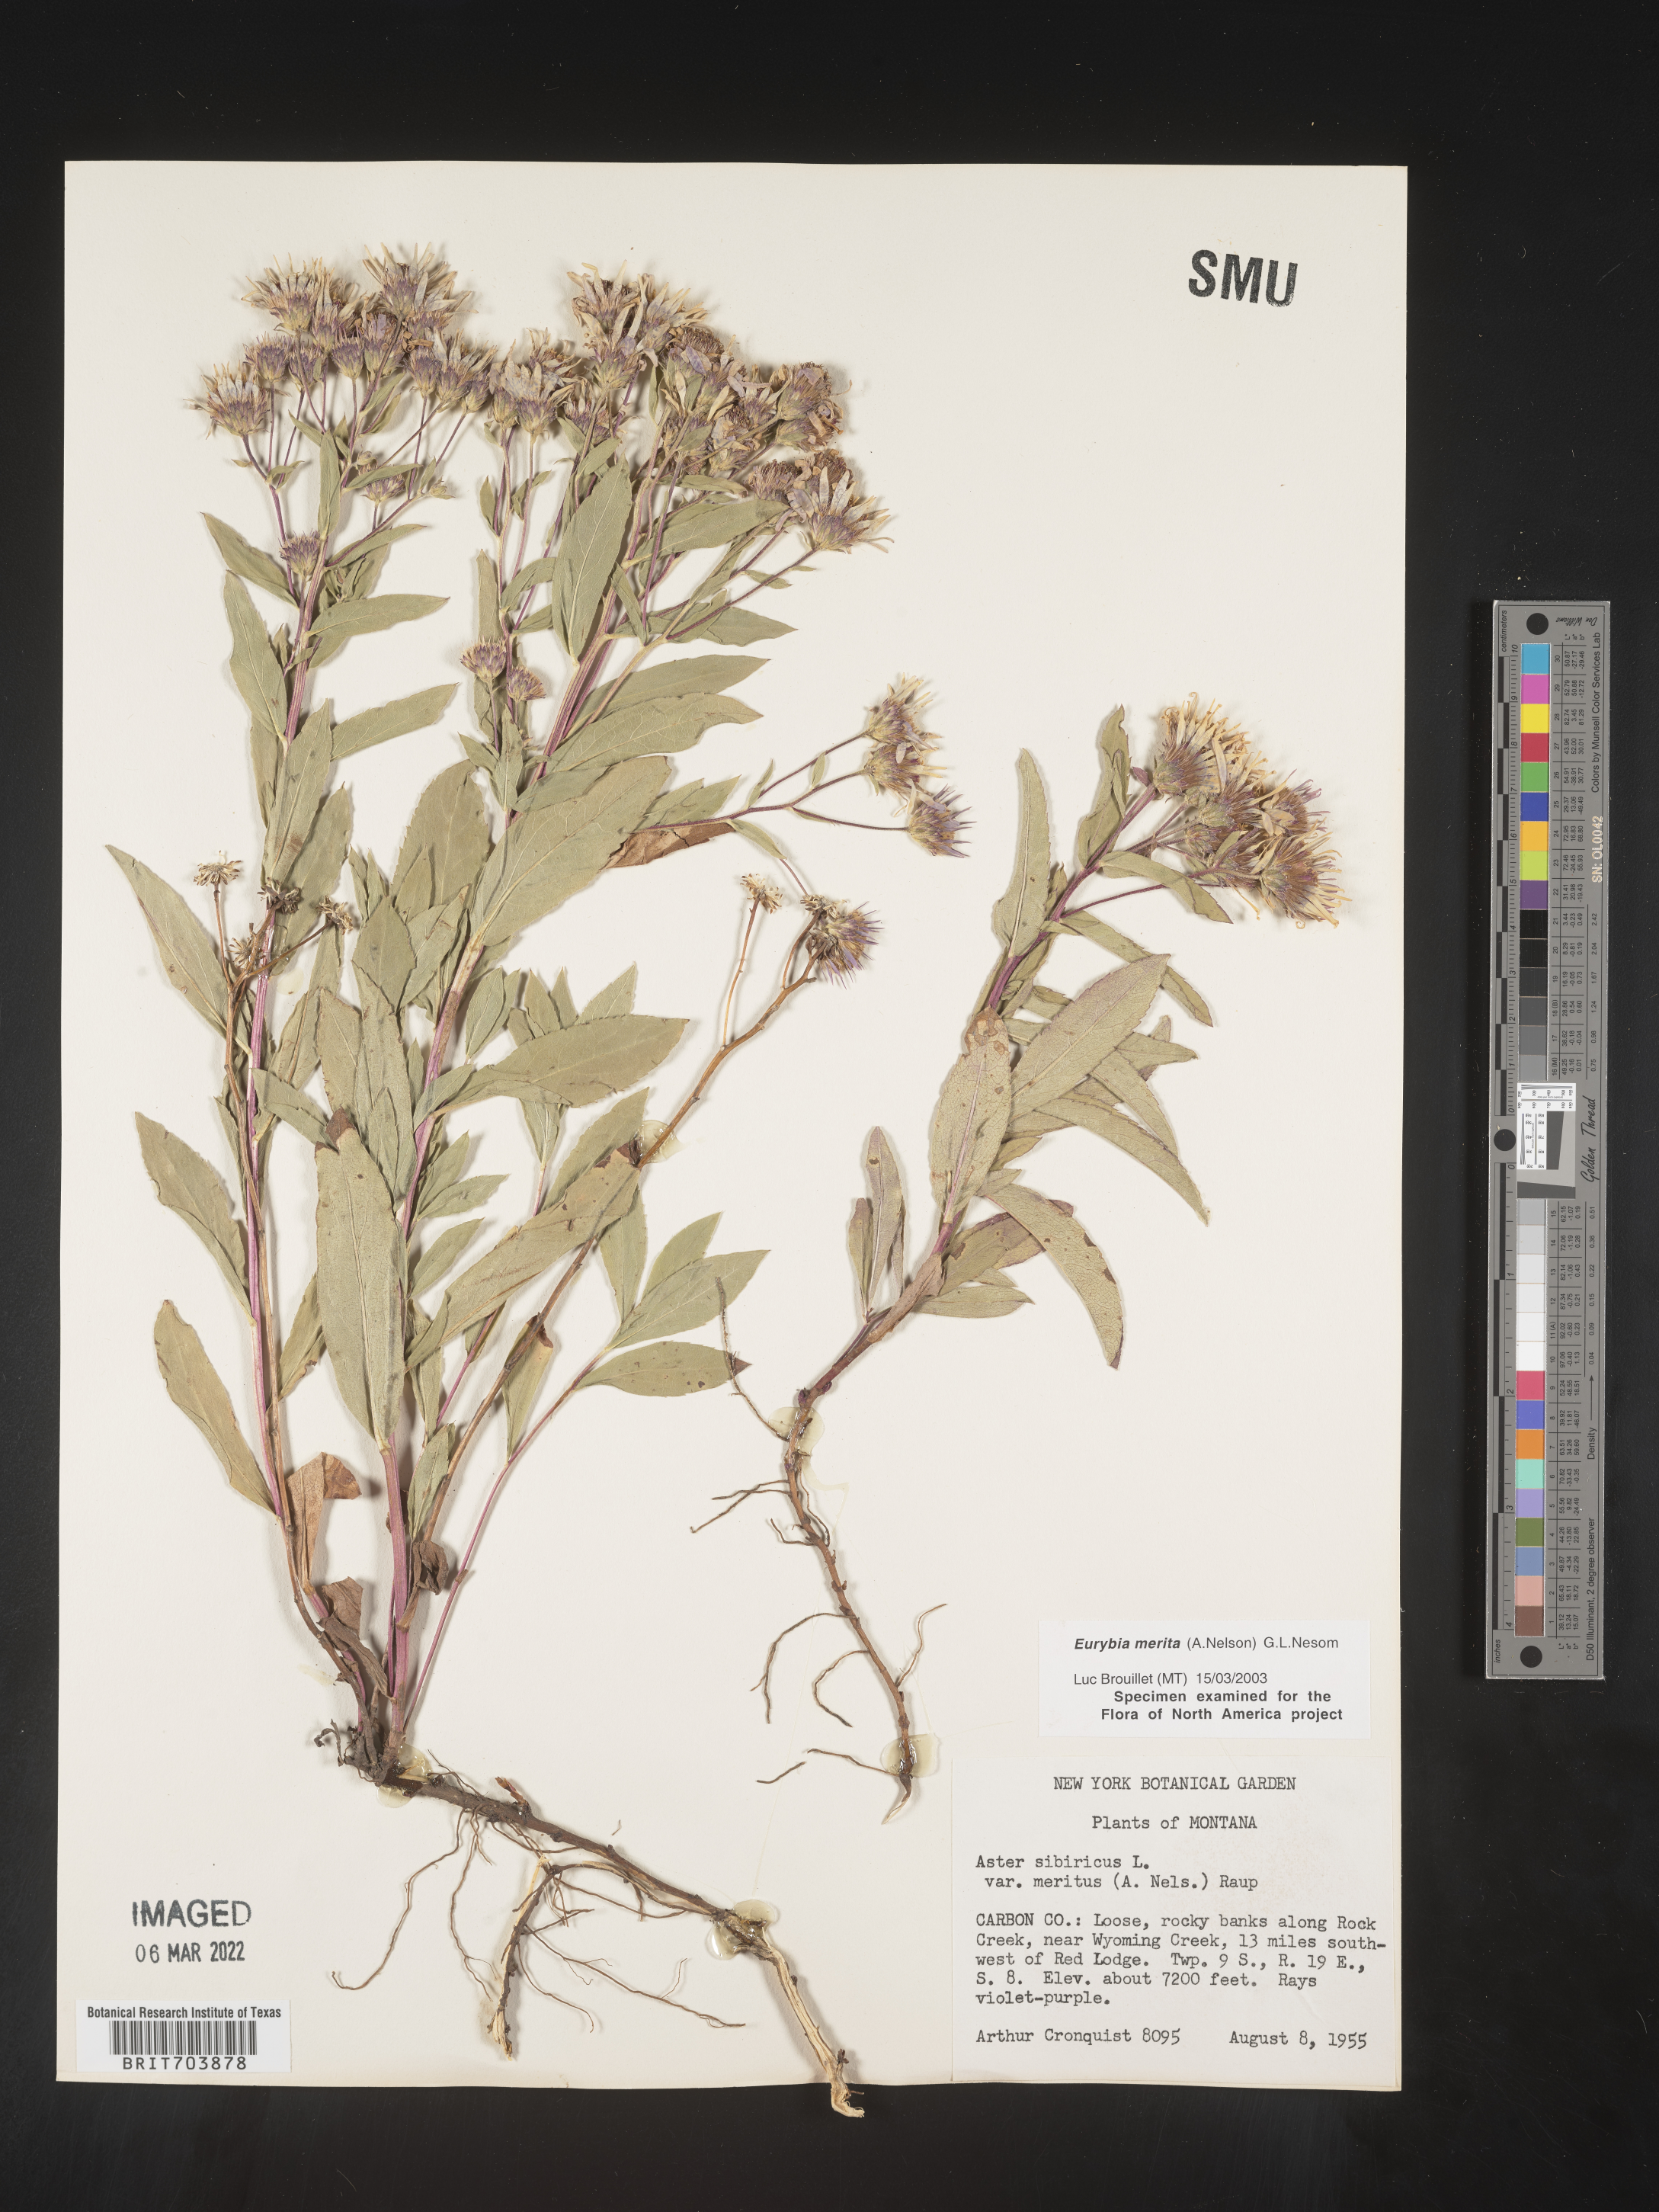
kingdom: Plantae
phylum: Tracheophyta
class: Magnoliopsida
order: Asterales
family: Asteraceae
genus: Eurybia
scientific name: Eurybia merita
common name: Arctic aster
